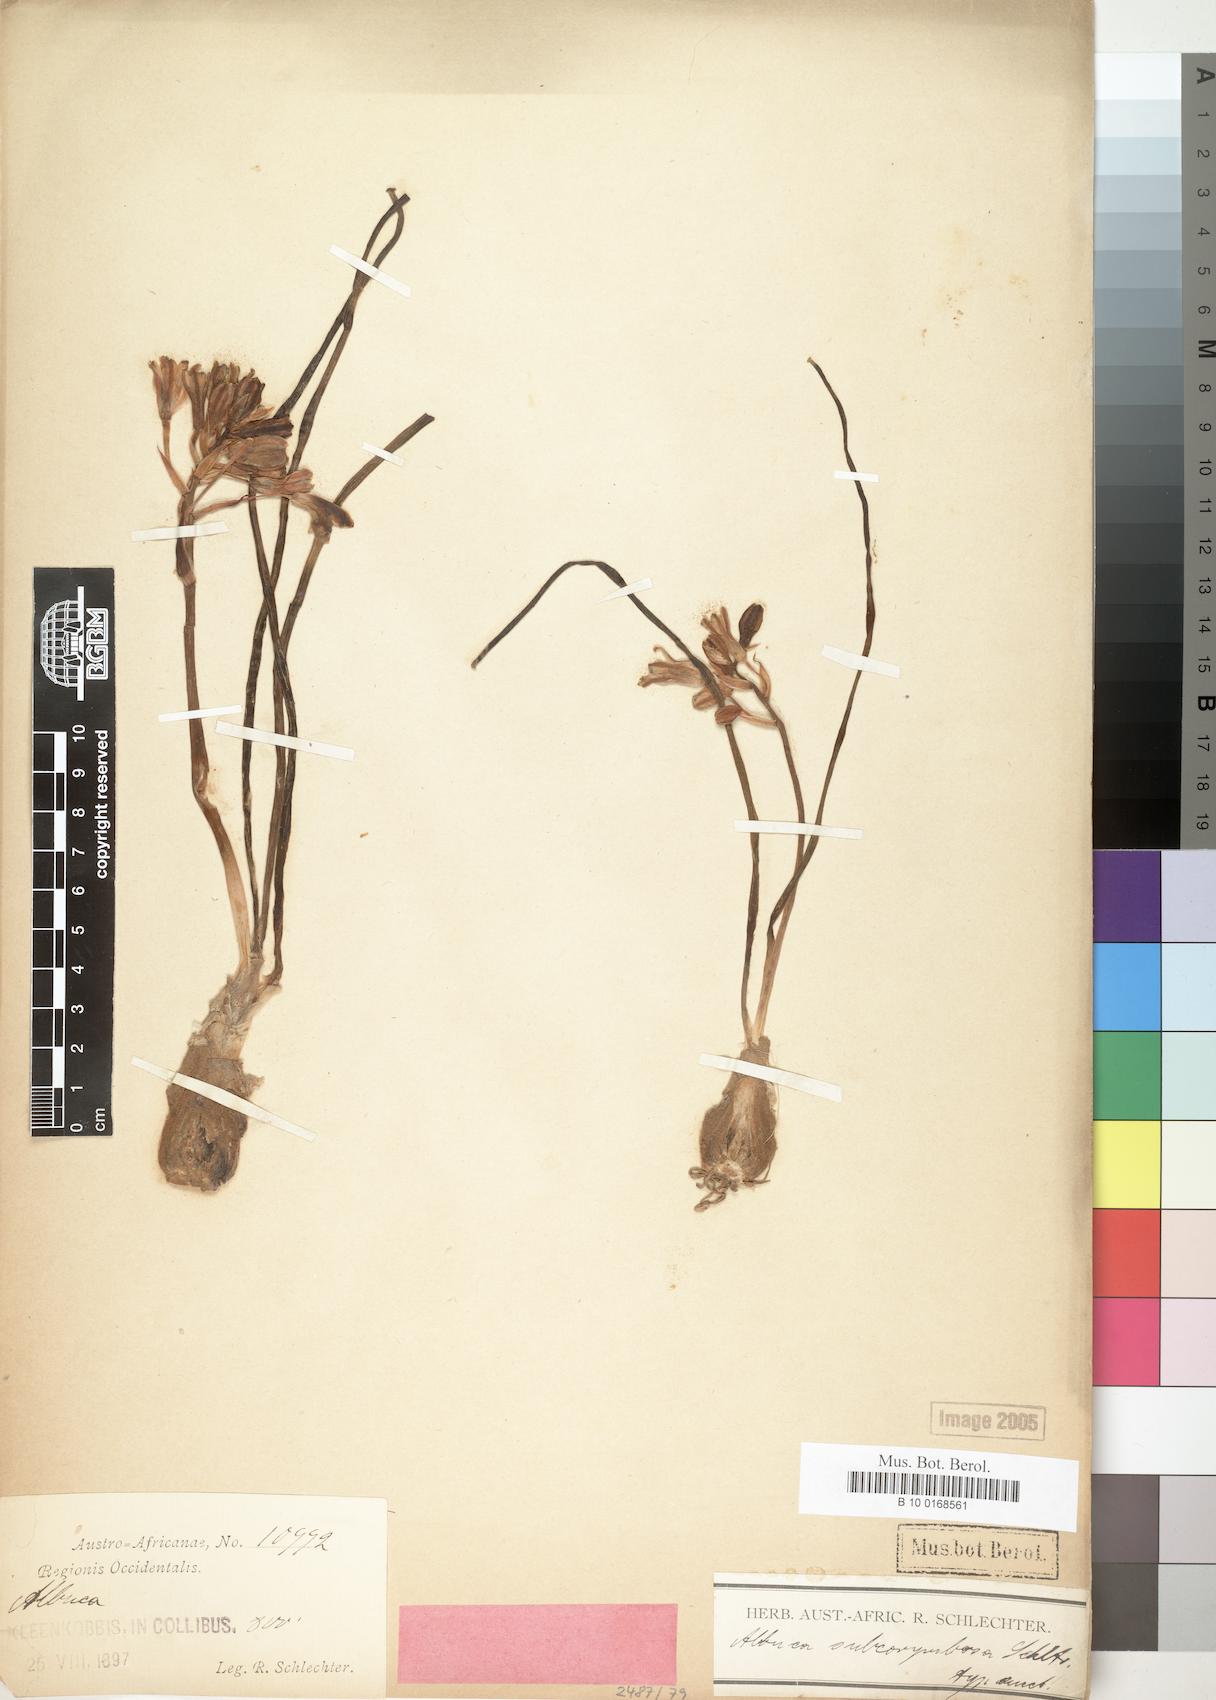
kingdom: Plantae
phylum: Tracheophyta
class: Liliopsida
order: Asparagales
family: Asparagaceae
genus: Albuca
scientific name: Albuca
